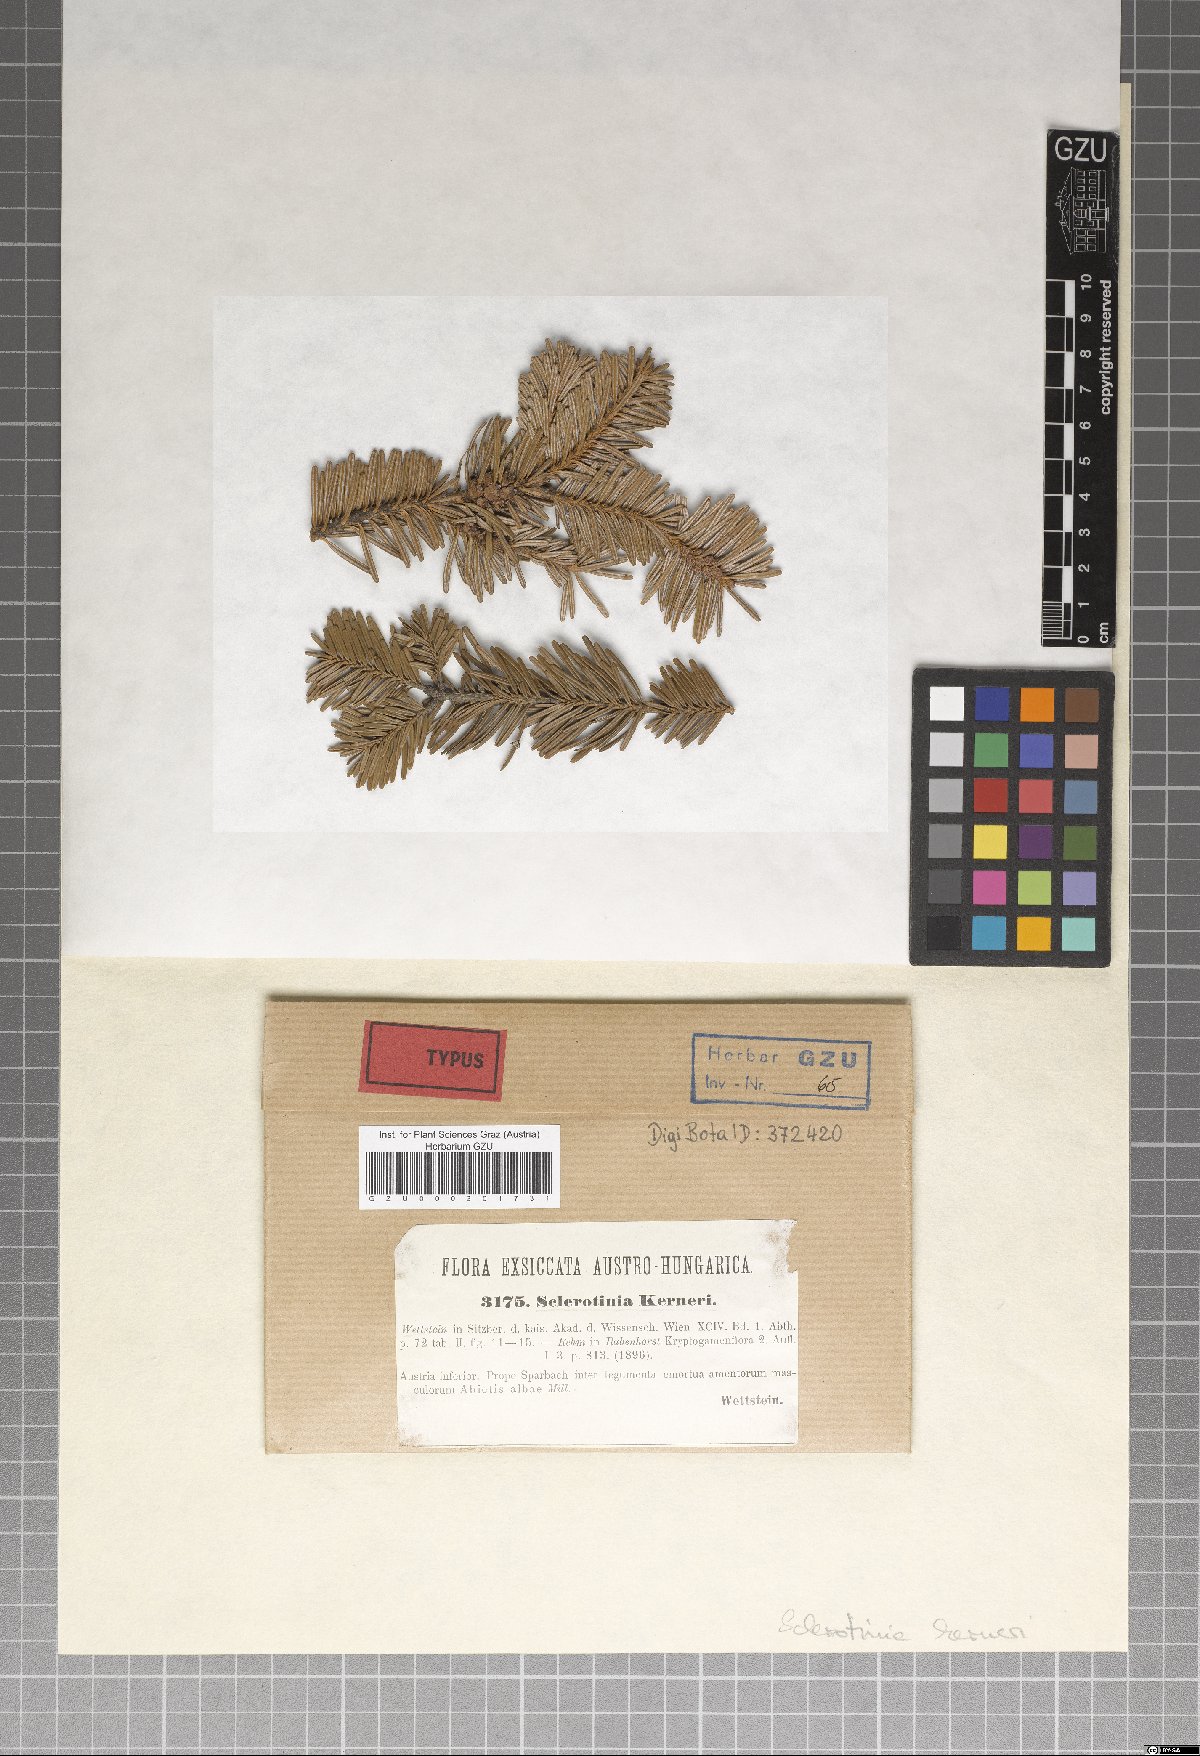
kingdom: Fungi
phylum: Ascomycota
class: Leotiomycetes
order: Helotiales
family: Sclerotiniaceae
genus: Elliottinia
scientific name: Elliottinia kerneri
